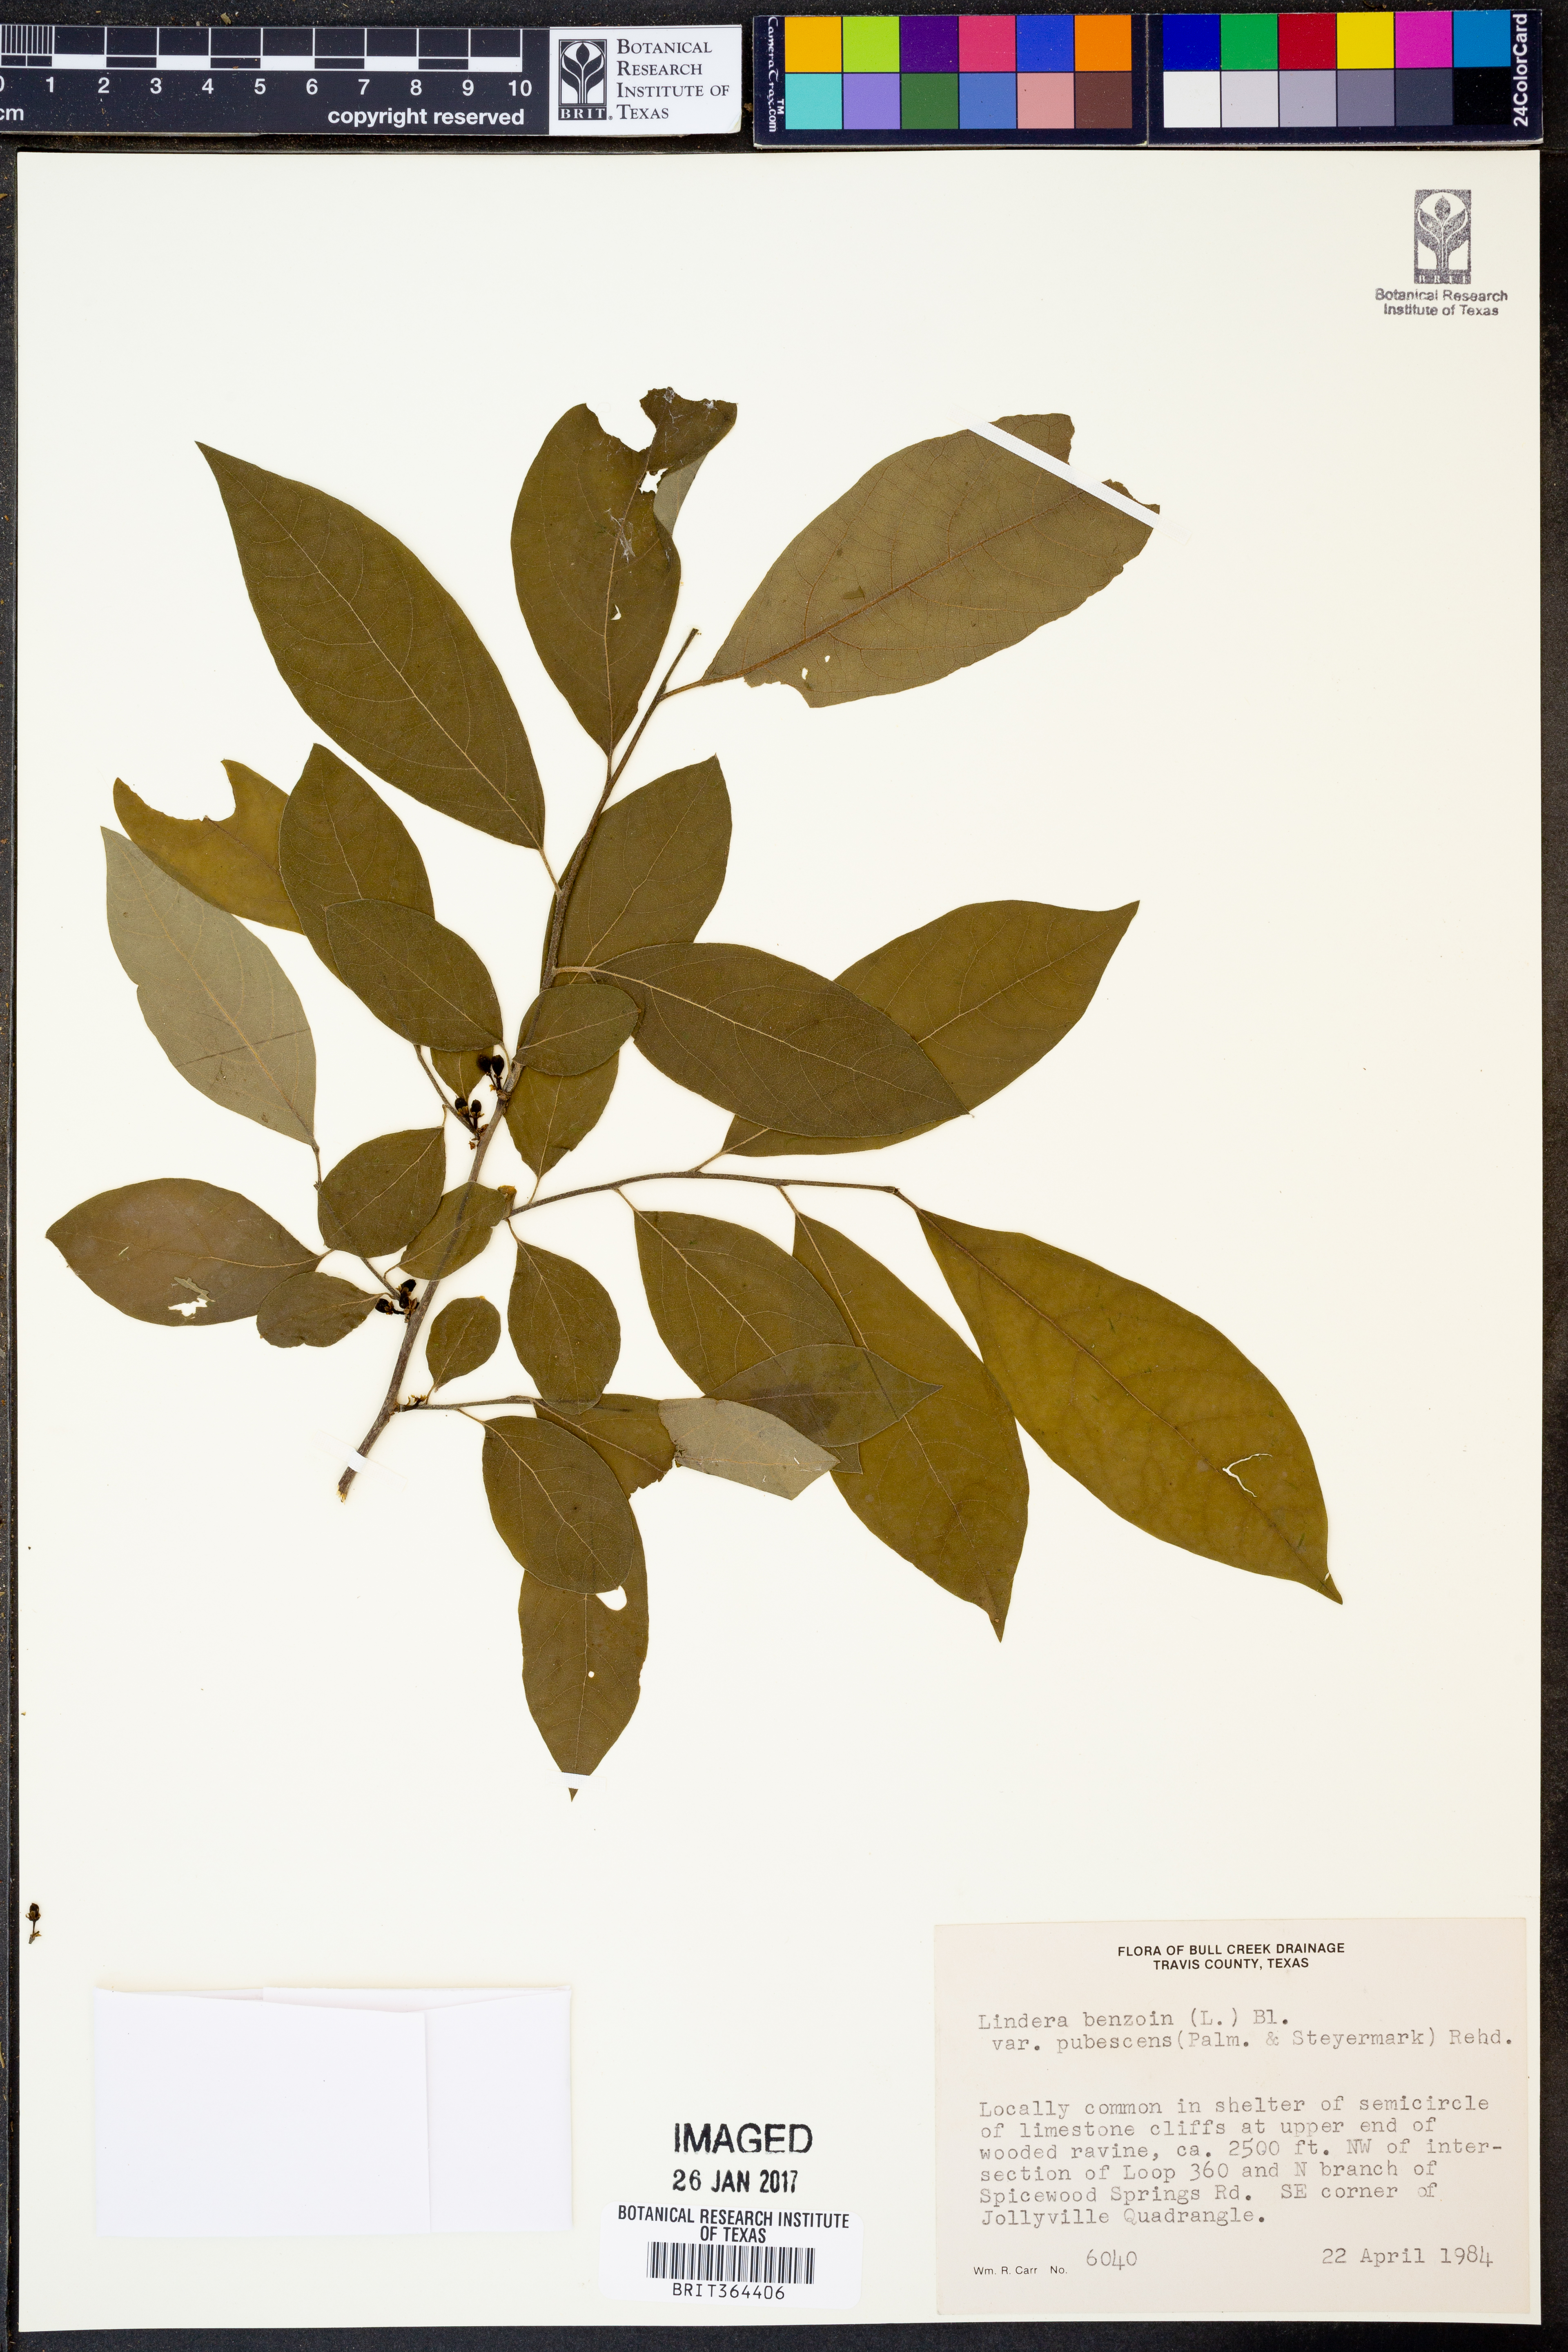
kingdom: Plantae
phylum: Tracheophyta
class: Magnoliopsida
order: Laurales
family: Lauraceae
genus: Lindera
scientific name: Lindera benzoin
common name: Spicebush
